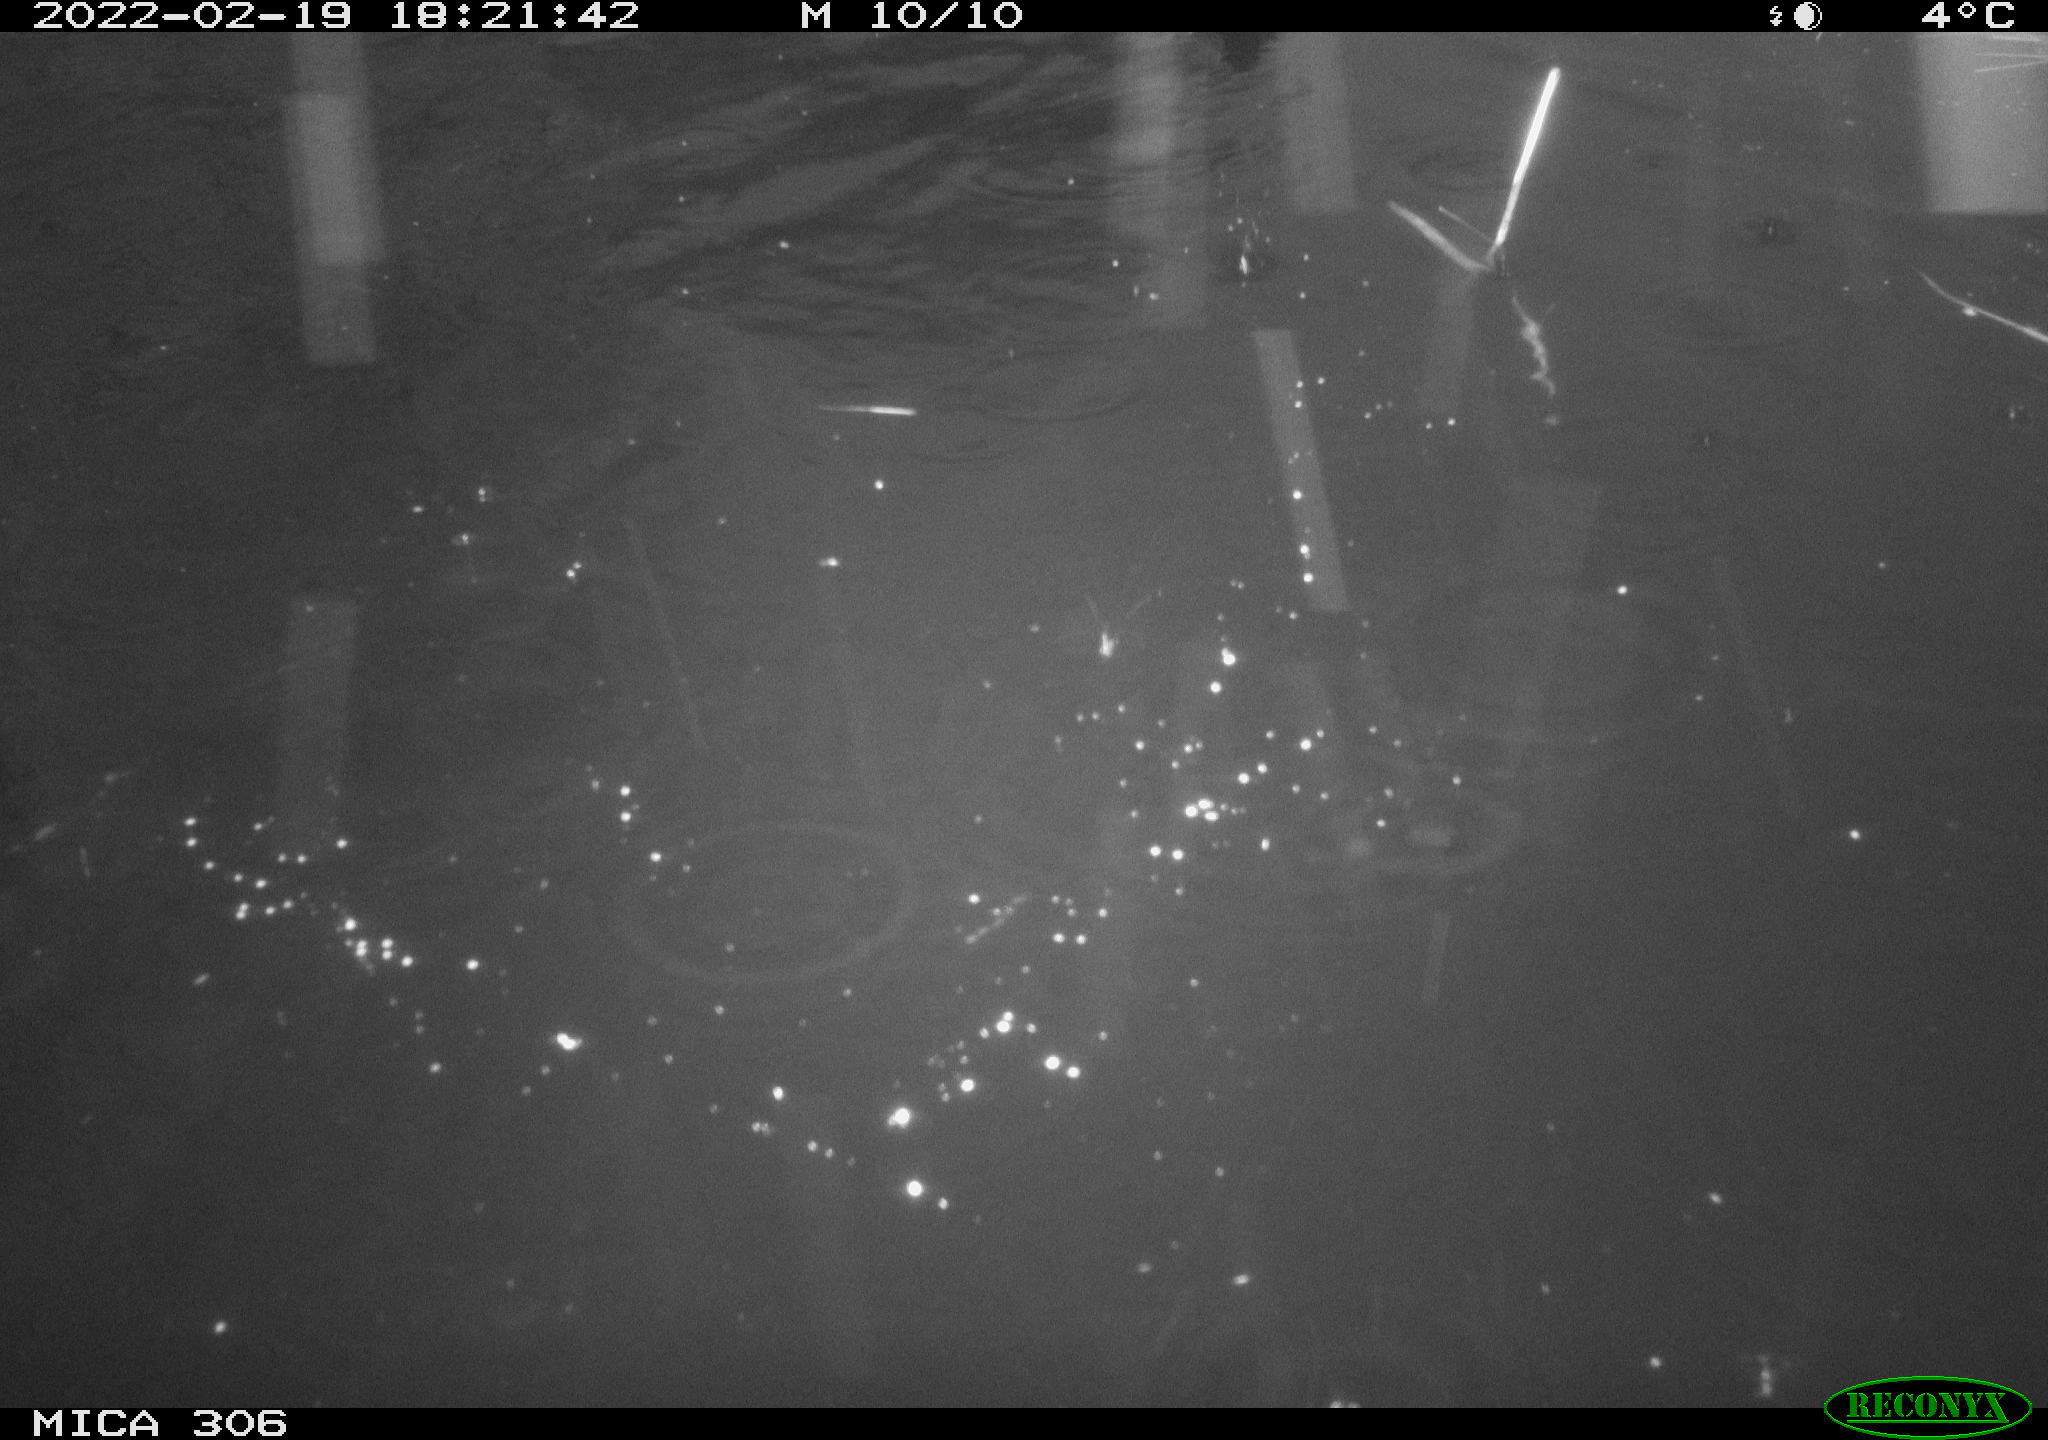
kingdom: Animalia
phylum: Chordata
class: Aves
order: Anseriformes
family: Anatidae
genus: Anas
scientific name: Anas platyrhynchos
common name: Mallard
